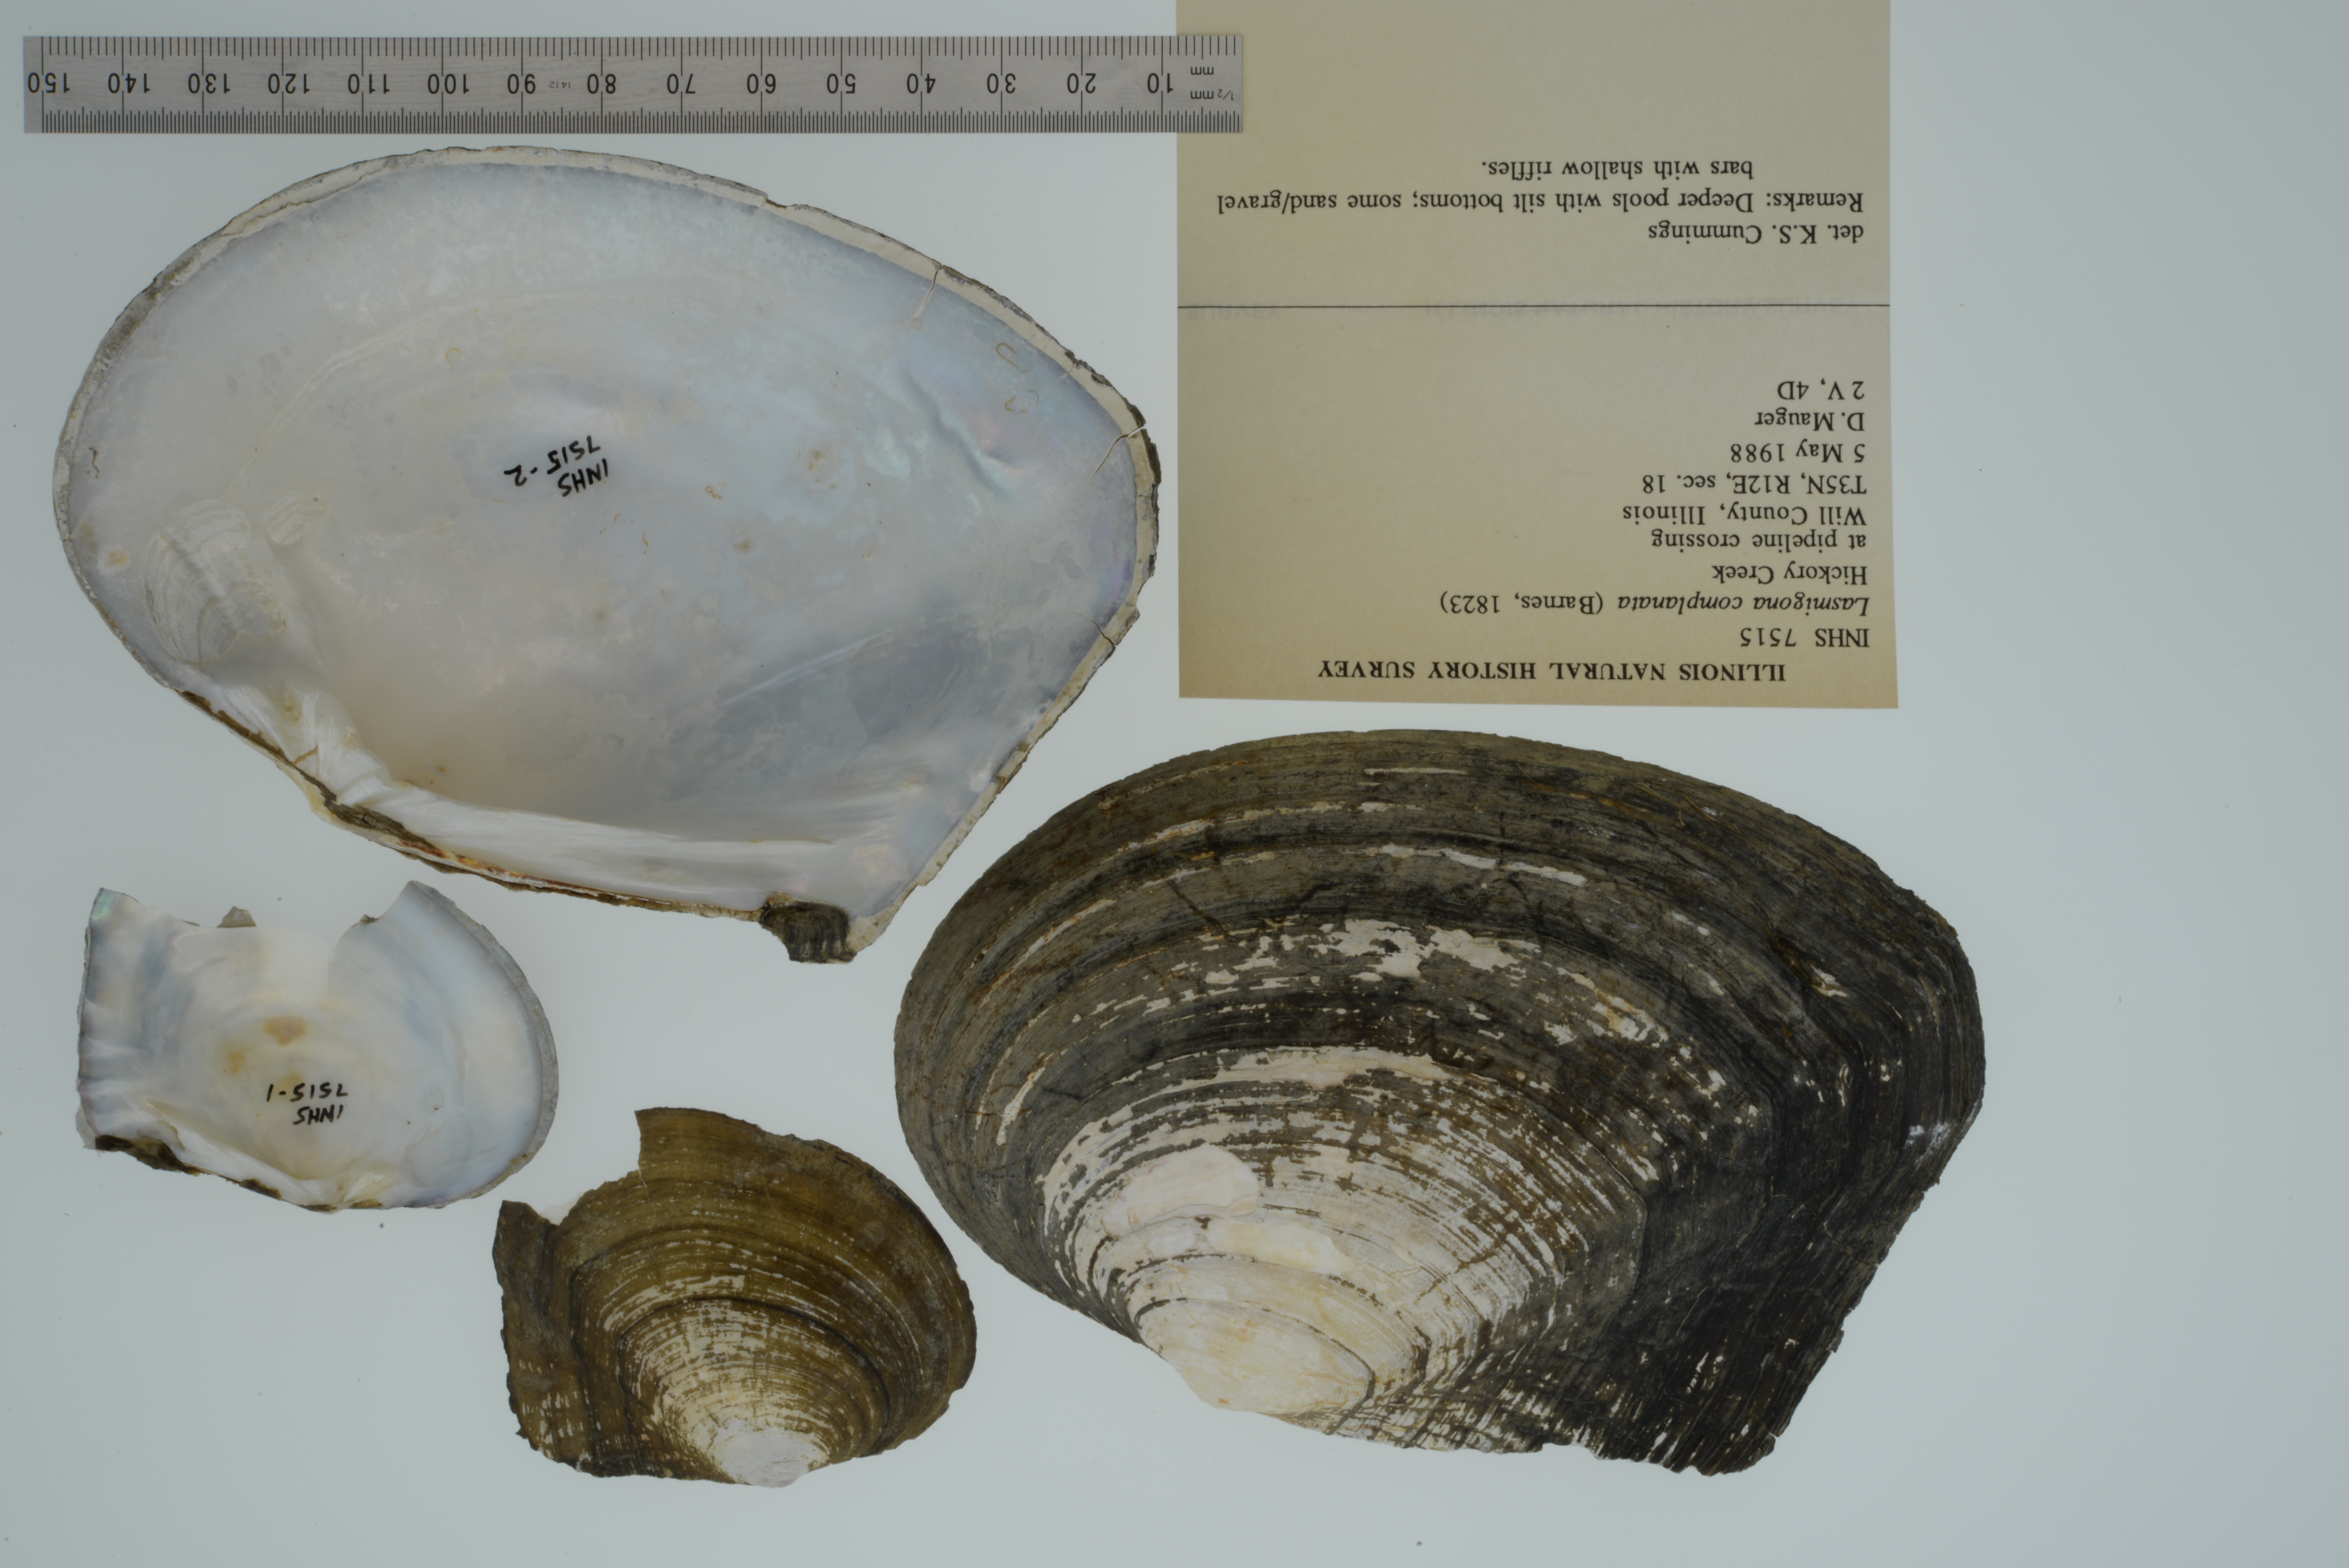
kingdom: Animalia
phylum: Mollusca
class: Bivalvia
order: Unionida
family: Unionidae
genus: Lasmigona
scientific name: Lasmigona complanata
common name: White heelsplitter
